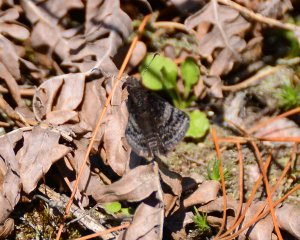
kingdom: Animalia
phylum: Arthropoda
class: Insecta
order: Lepidoptera
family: Hesperiidae
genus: Erynnis
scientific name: Erynnis icelus
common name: Dreamy Duskywing
